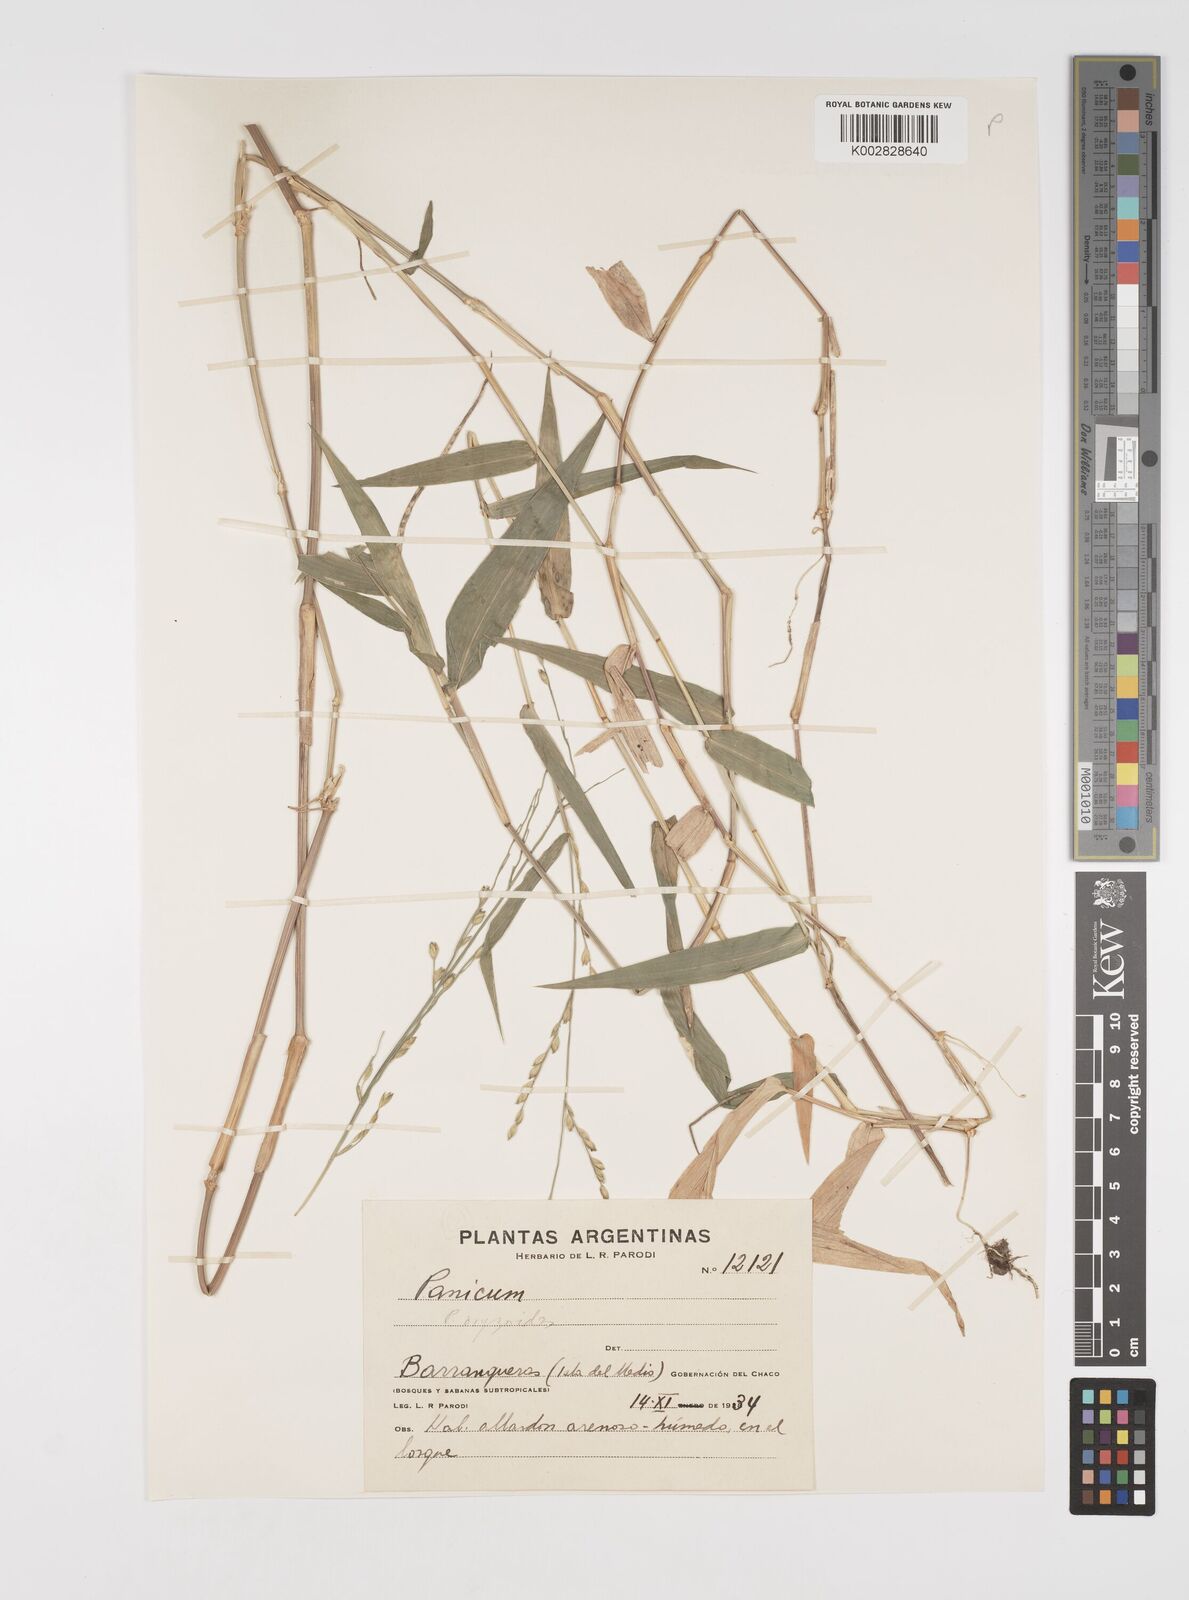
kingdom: Plantae
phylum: Tracheophyta
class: Liliopsida
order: Poales
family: Poaceae
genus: Acroceras
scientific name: Acroceras zizanioides
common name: Oat grass
